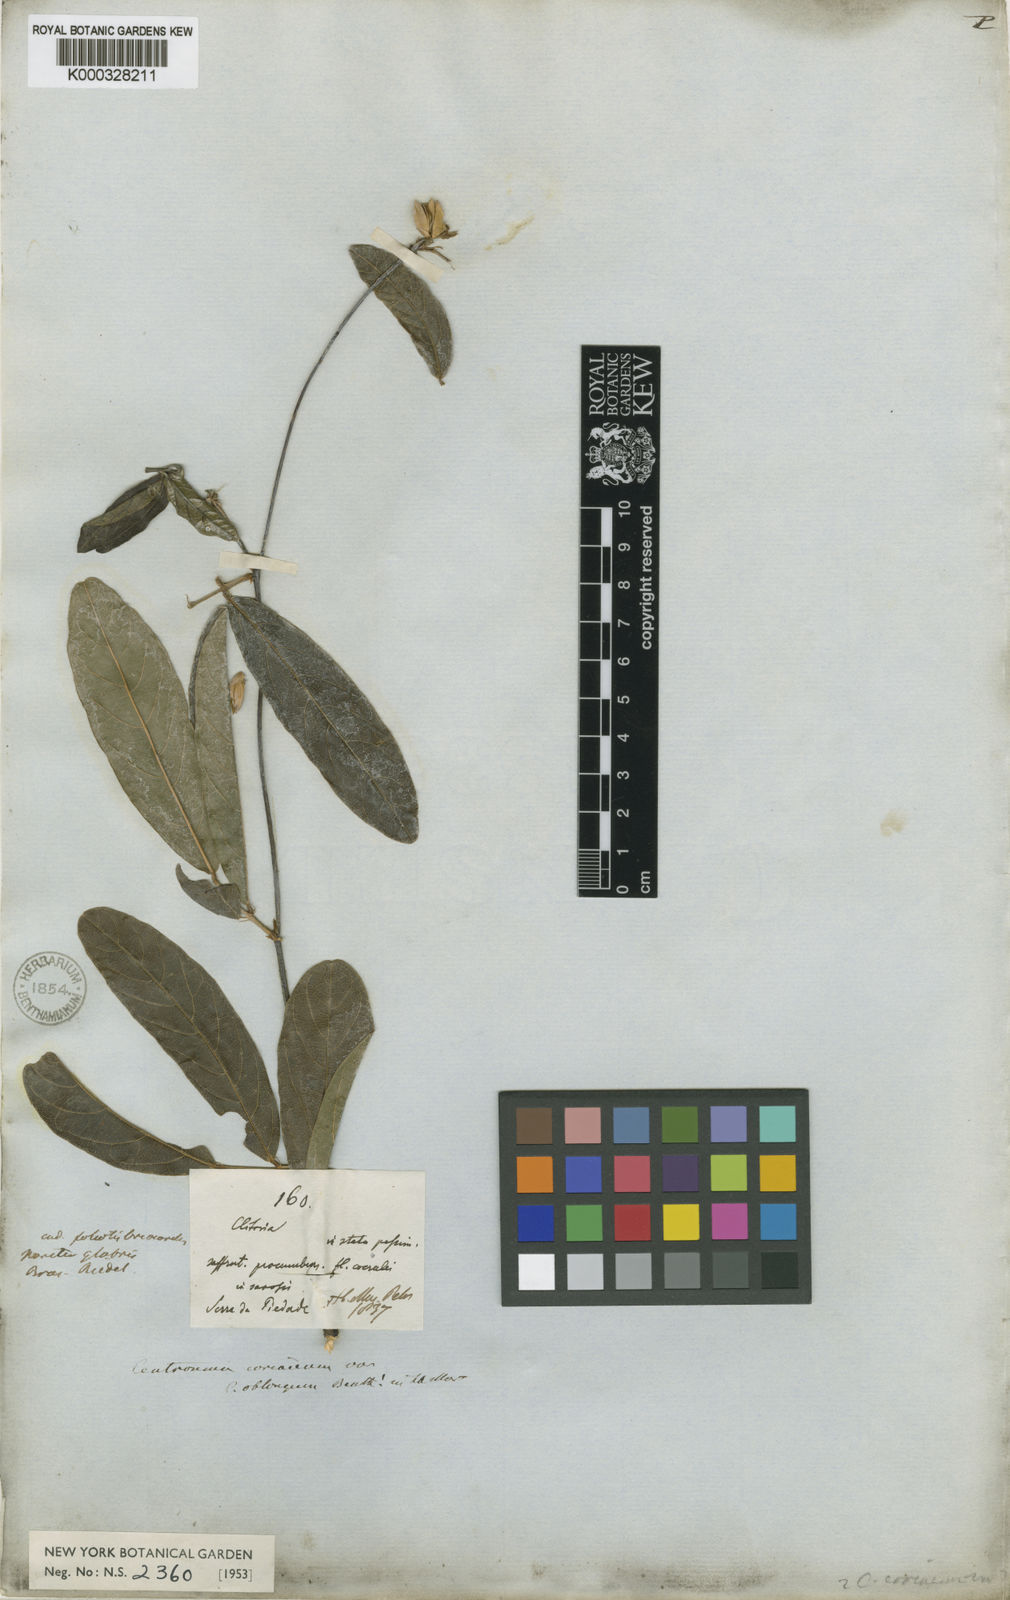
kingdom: Plantae
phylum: Tracheophyta
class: Magnoliopsida
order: Fabales
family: Fabaceae
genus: Centrosema
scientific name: Centrosema coriaceum
